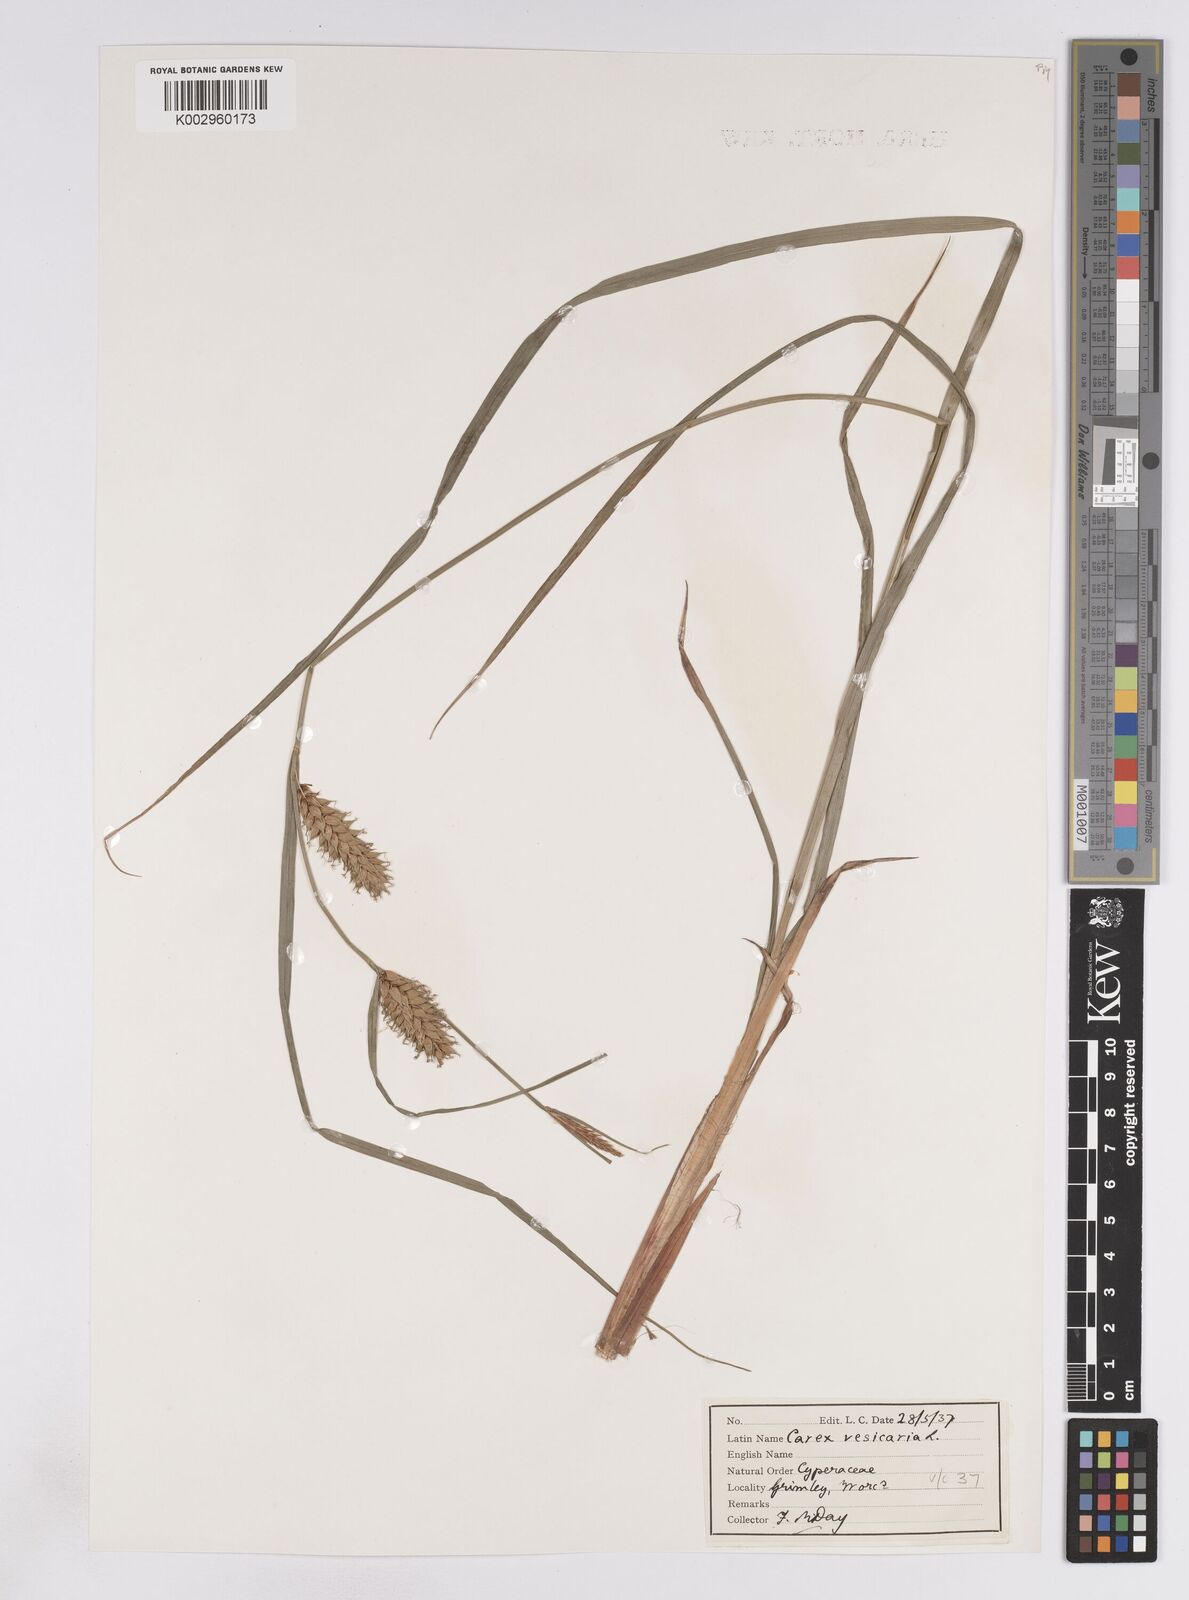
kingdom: Plantae
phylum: Tracheophyta
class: Liliopsida
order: Poales
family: Cyperaceae
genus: Carex
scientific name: Carex vesicaria
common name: Bladder-sedge
